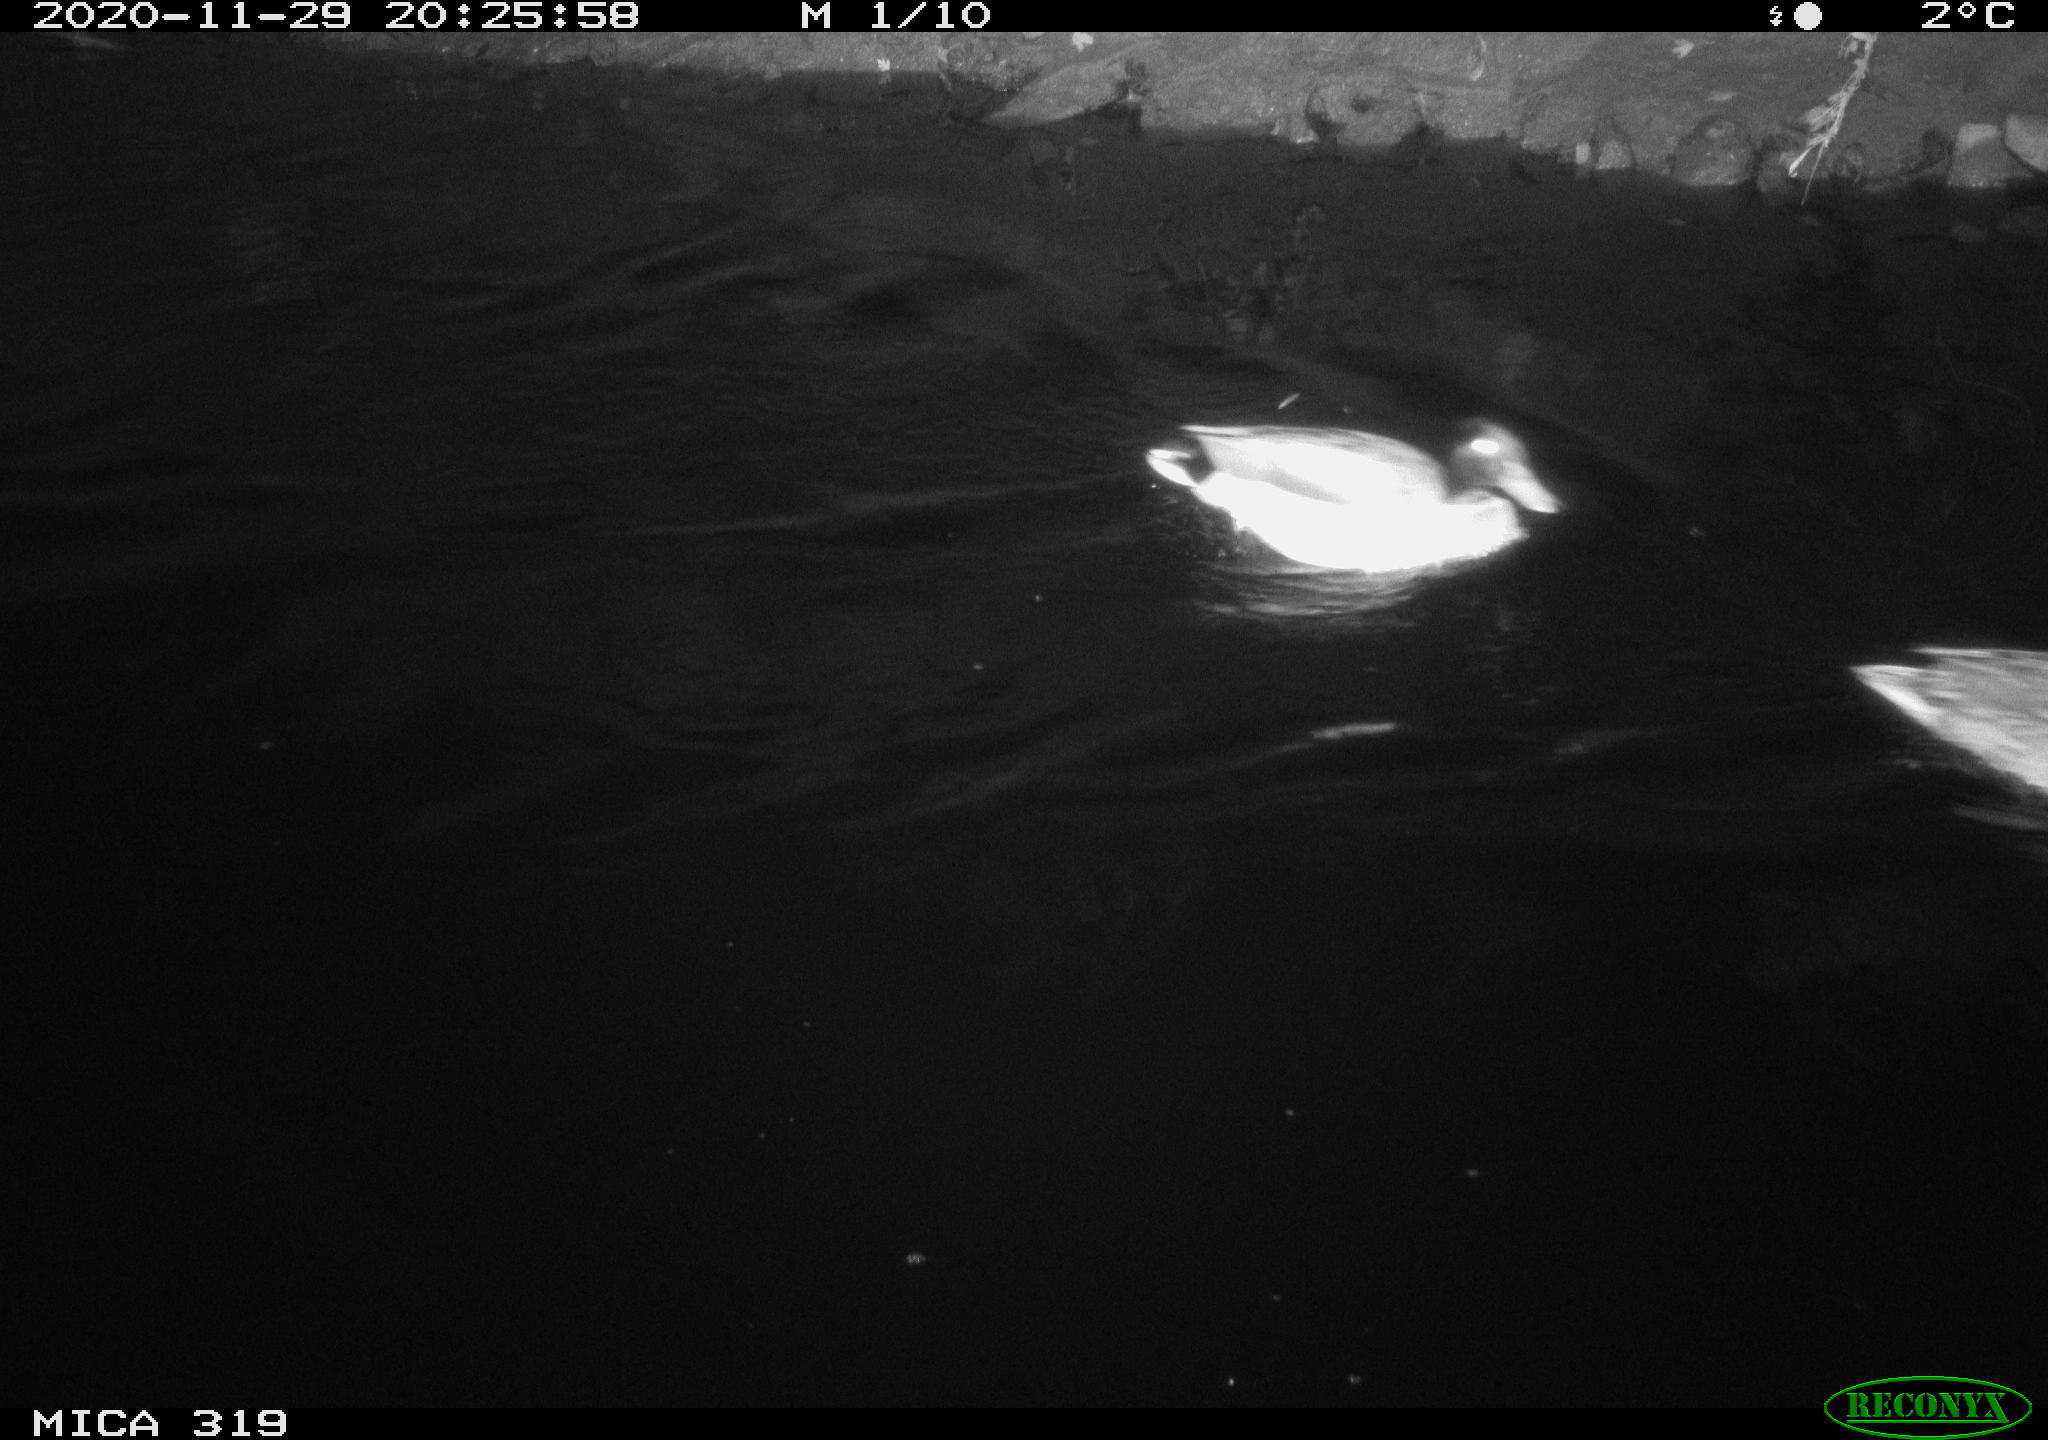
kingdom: Animalia
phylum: Chordata
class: Aves
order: Anseriformes
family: Anatidae
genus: Anas
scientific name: Anas platyrhynchos
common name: Mallard
